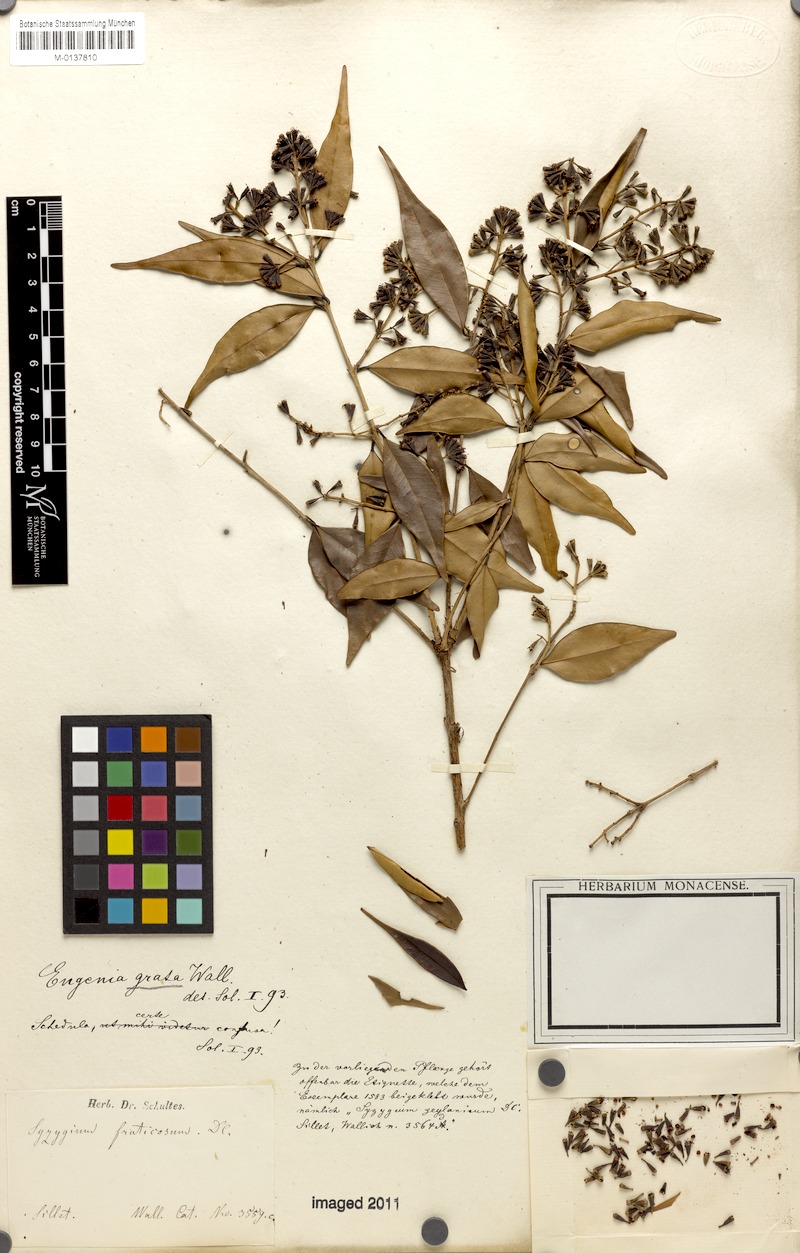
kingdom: Plantae
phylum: Tracheophyta
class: Magnoliopsida
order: Myrtales
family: Myrtaceae
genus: Syzygium
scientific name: Syzygium antisepticum
